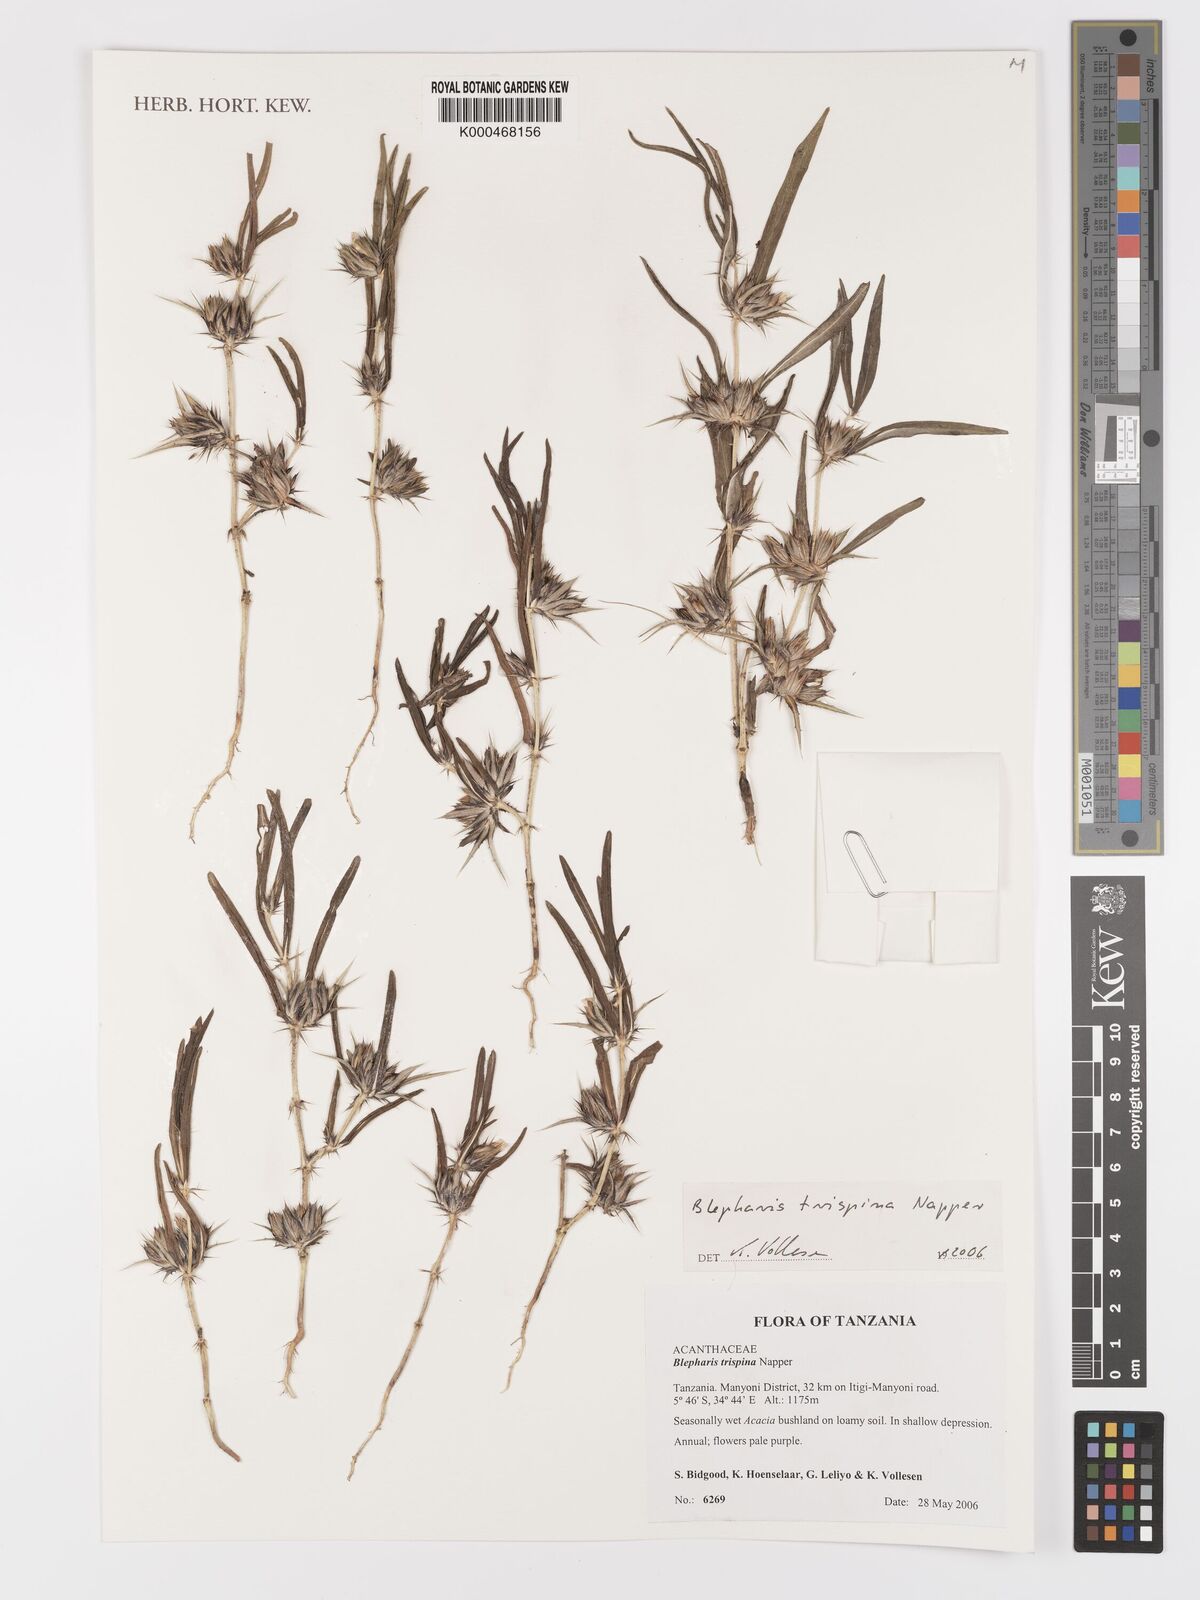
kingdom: Plantae
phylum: Tracheophyta
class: Magnoliopsida
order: Lamiales
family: Acanthaceae
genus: Blepharis
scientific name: Blepharis trispina
